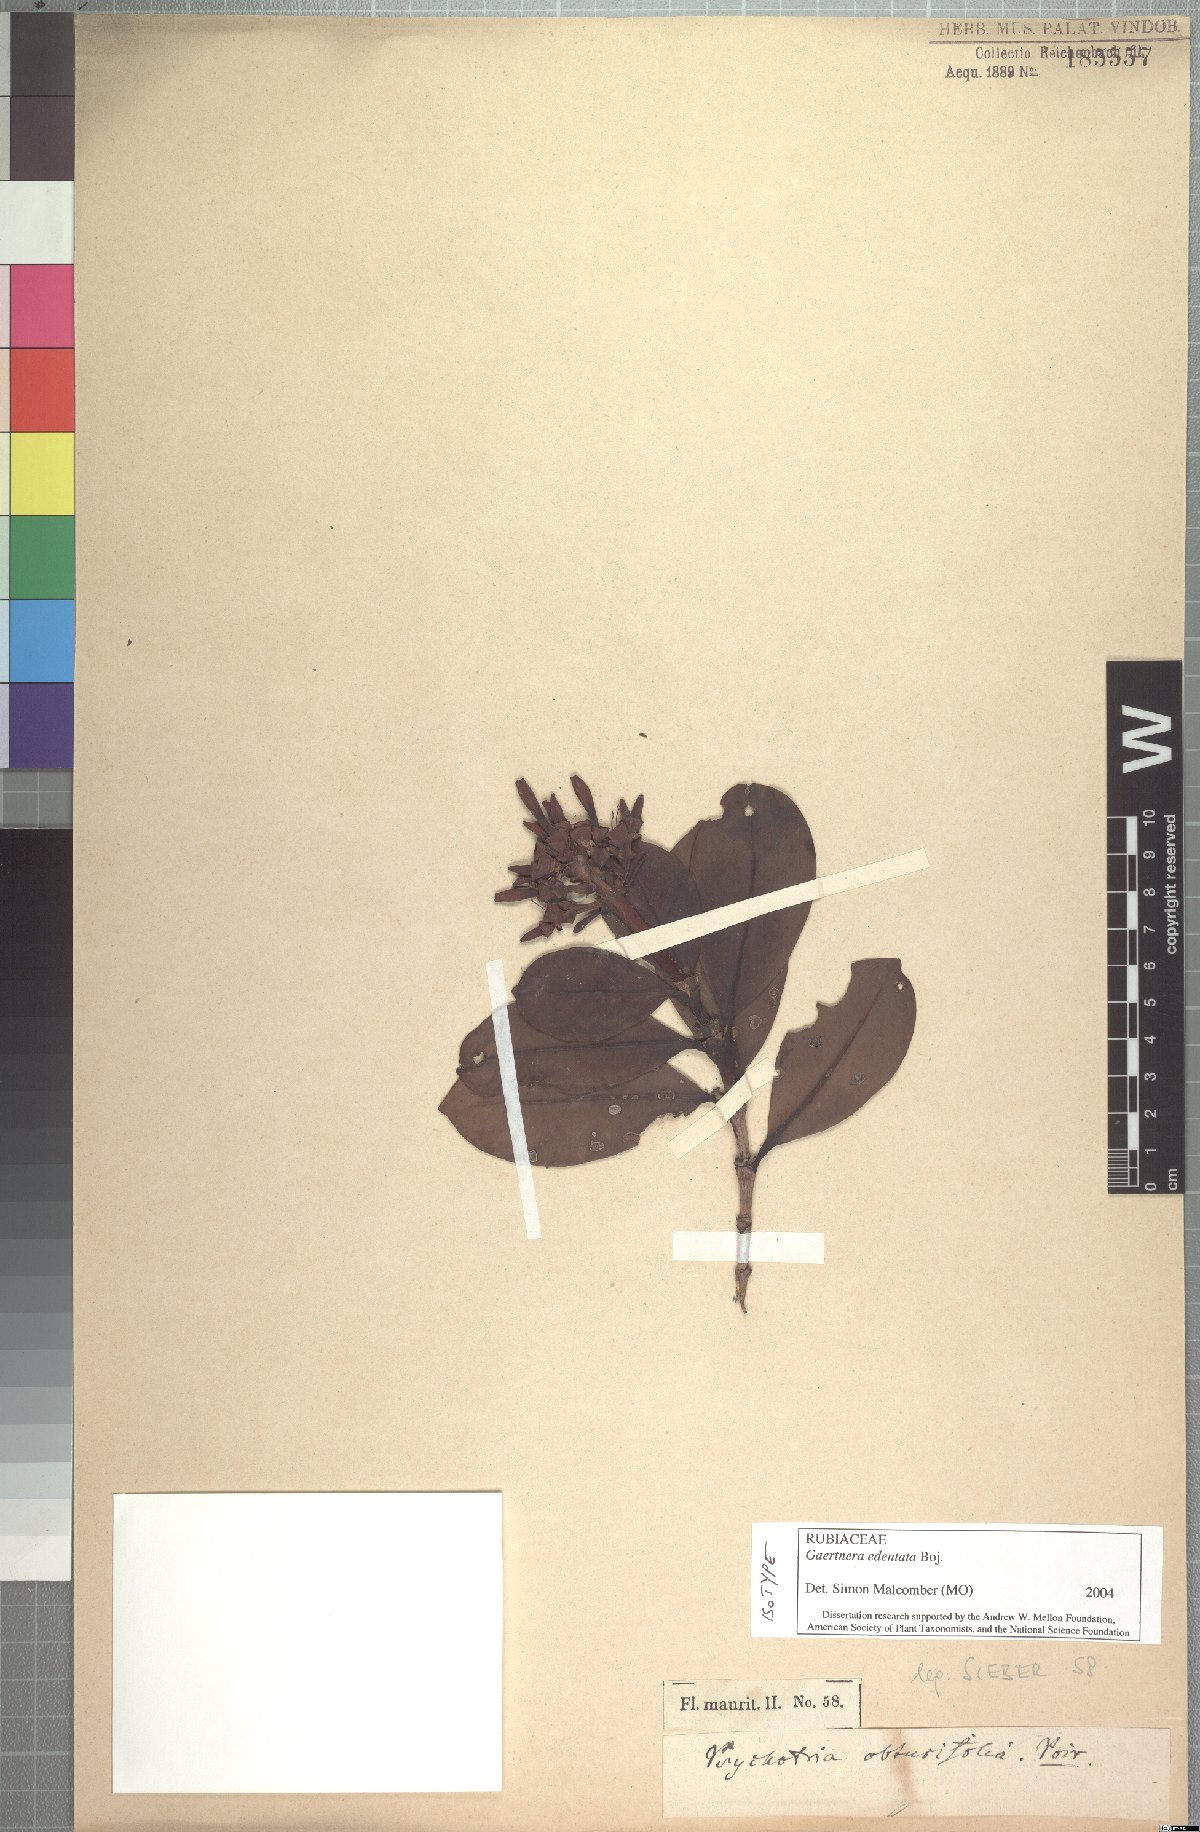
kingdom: Plantae
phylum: Tracheophyta
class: Magnoliopsida
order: Gentianales
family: Rubiaceae
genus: Gaertnera
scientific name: Gaertnera edentata
